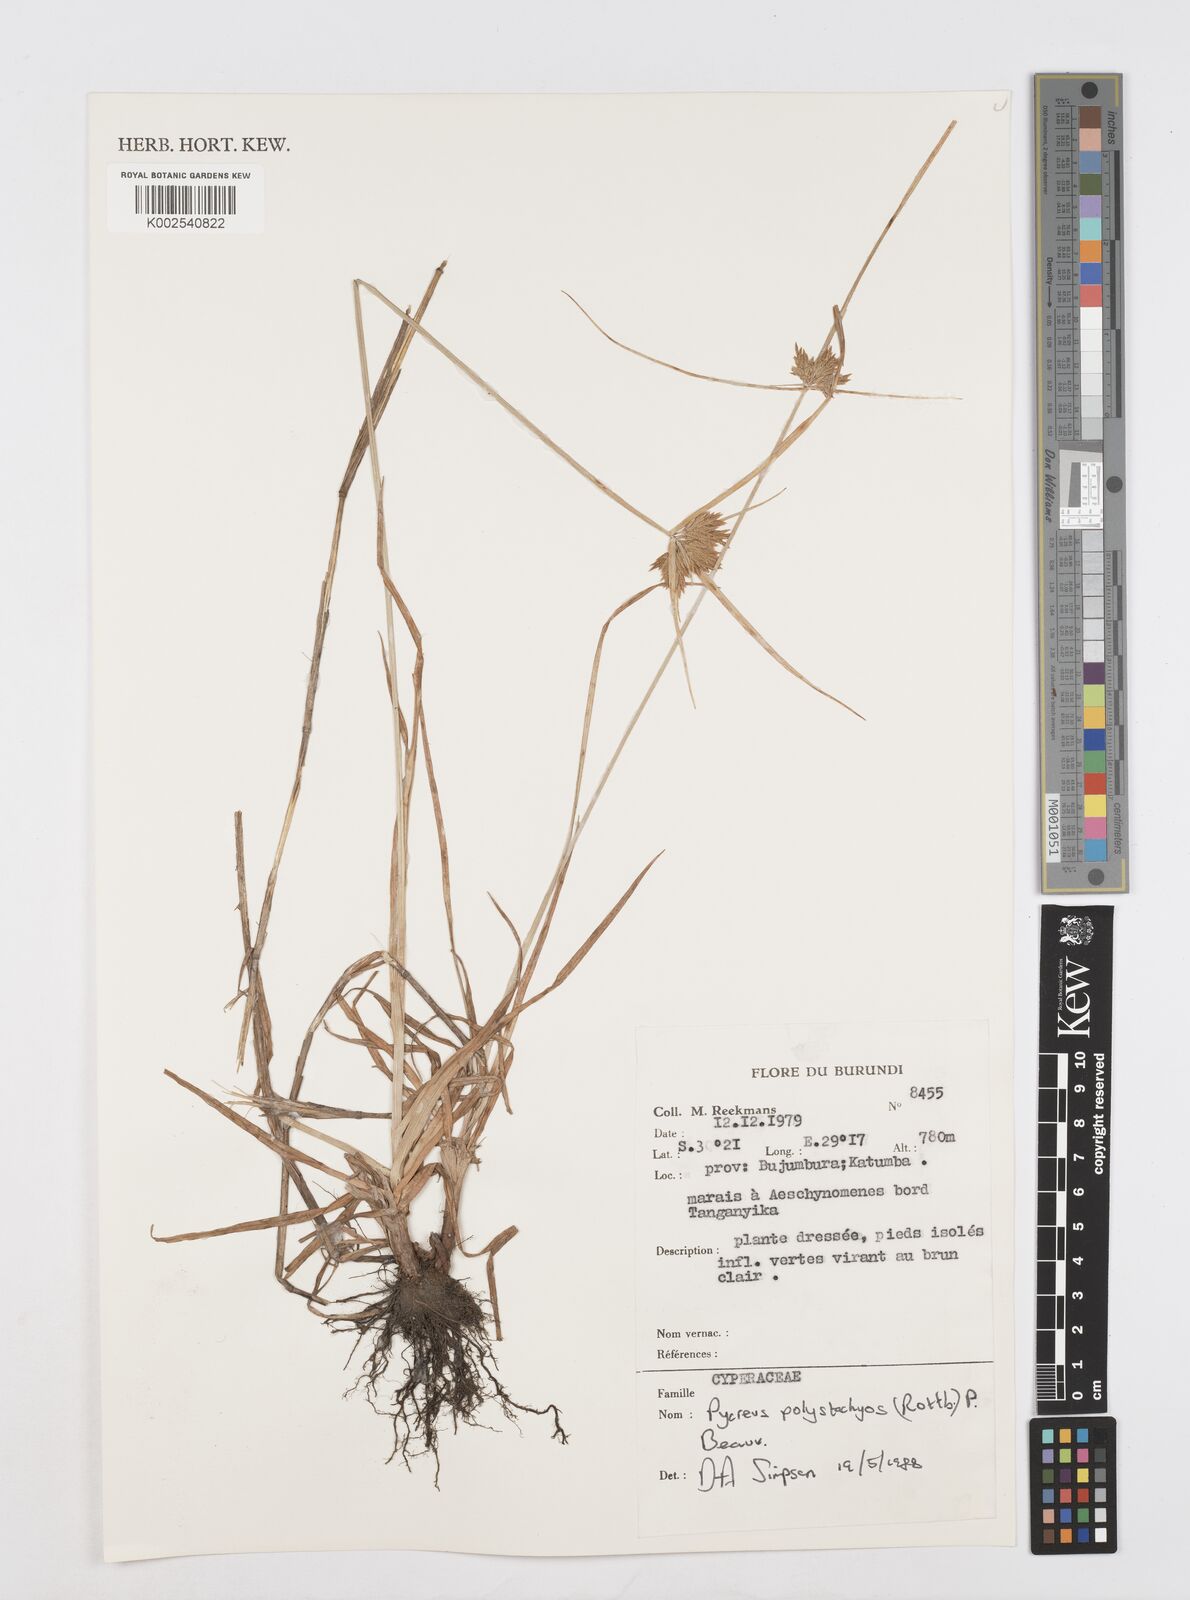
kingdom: Plantae
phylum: Tracheophyta
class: Liliopsida
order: Poales
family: Cyperaceae
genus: Cyperus
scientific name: Cyperus polystachyos
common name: Bunchy flat sedge
